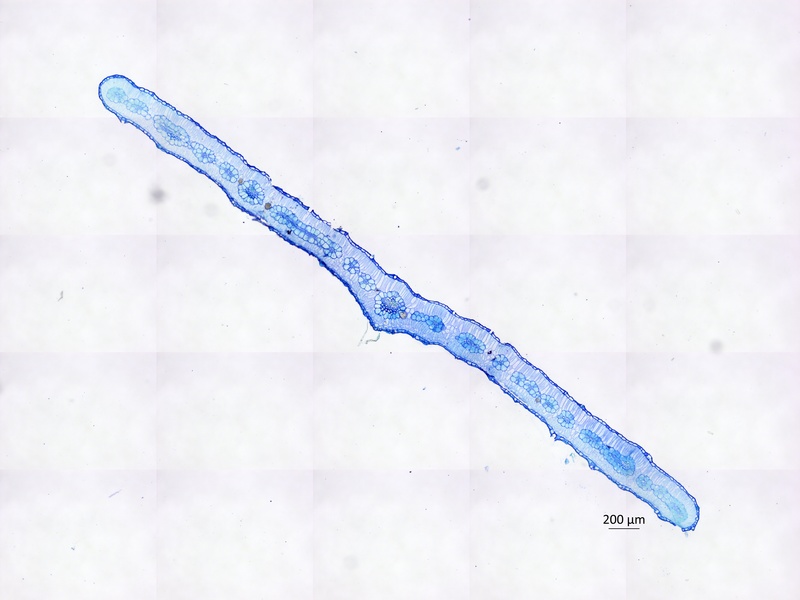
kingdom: Plantae
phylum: Tracheophyta
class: Magnoliopsida
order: Zygophyllales
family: Zygophyllaceae
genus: Tribulus
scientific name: Tribulus pentandrus
